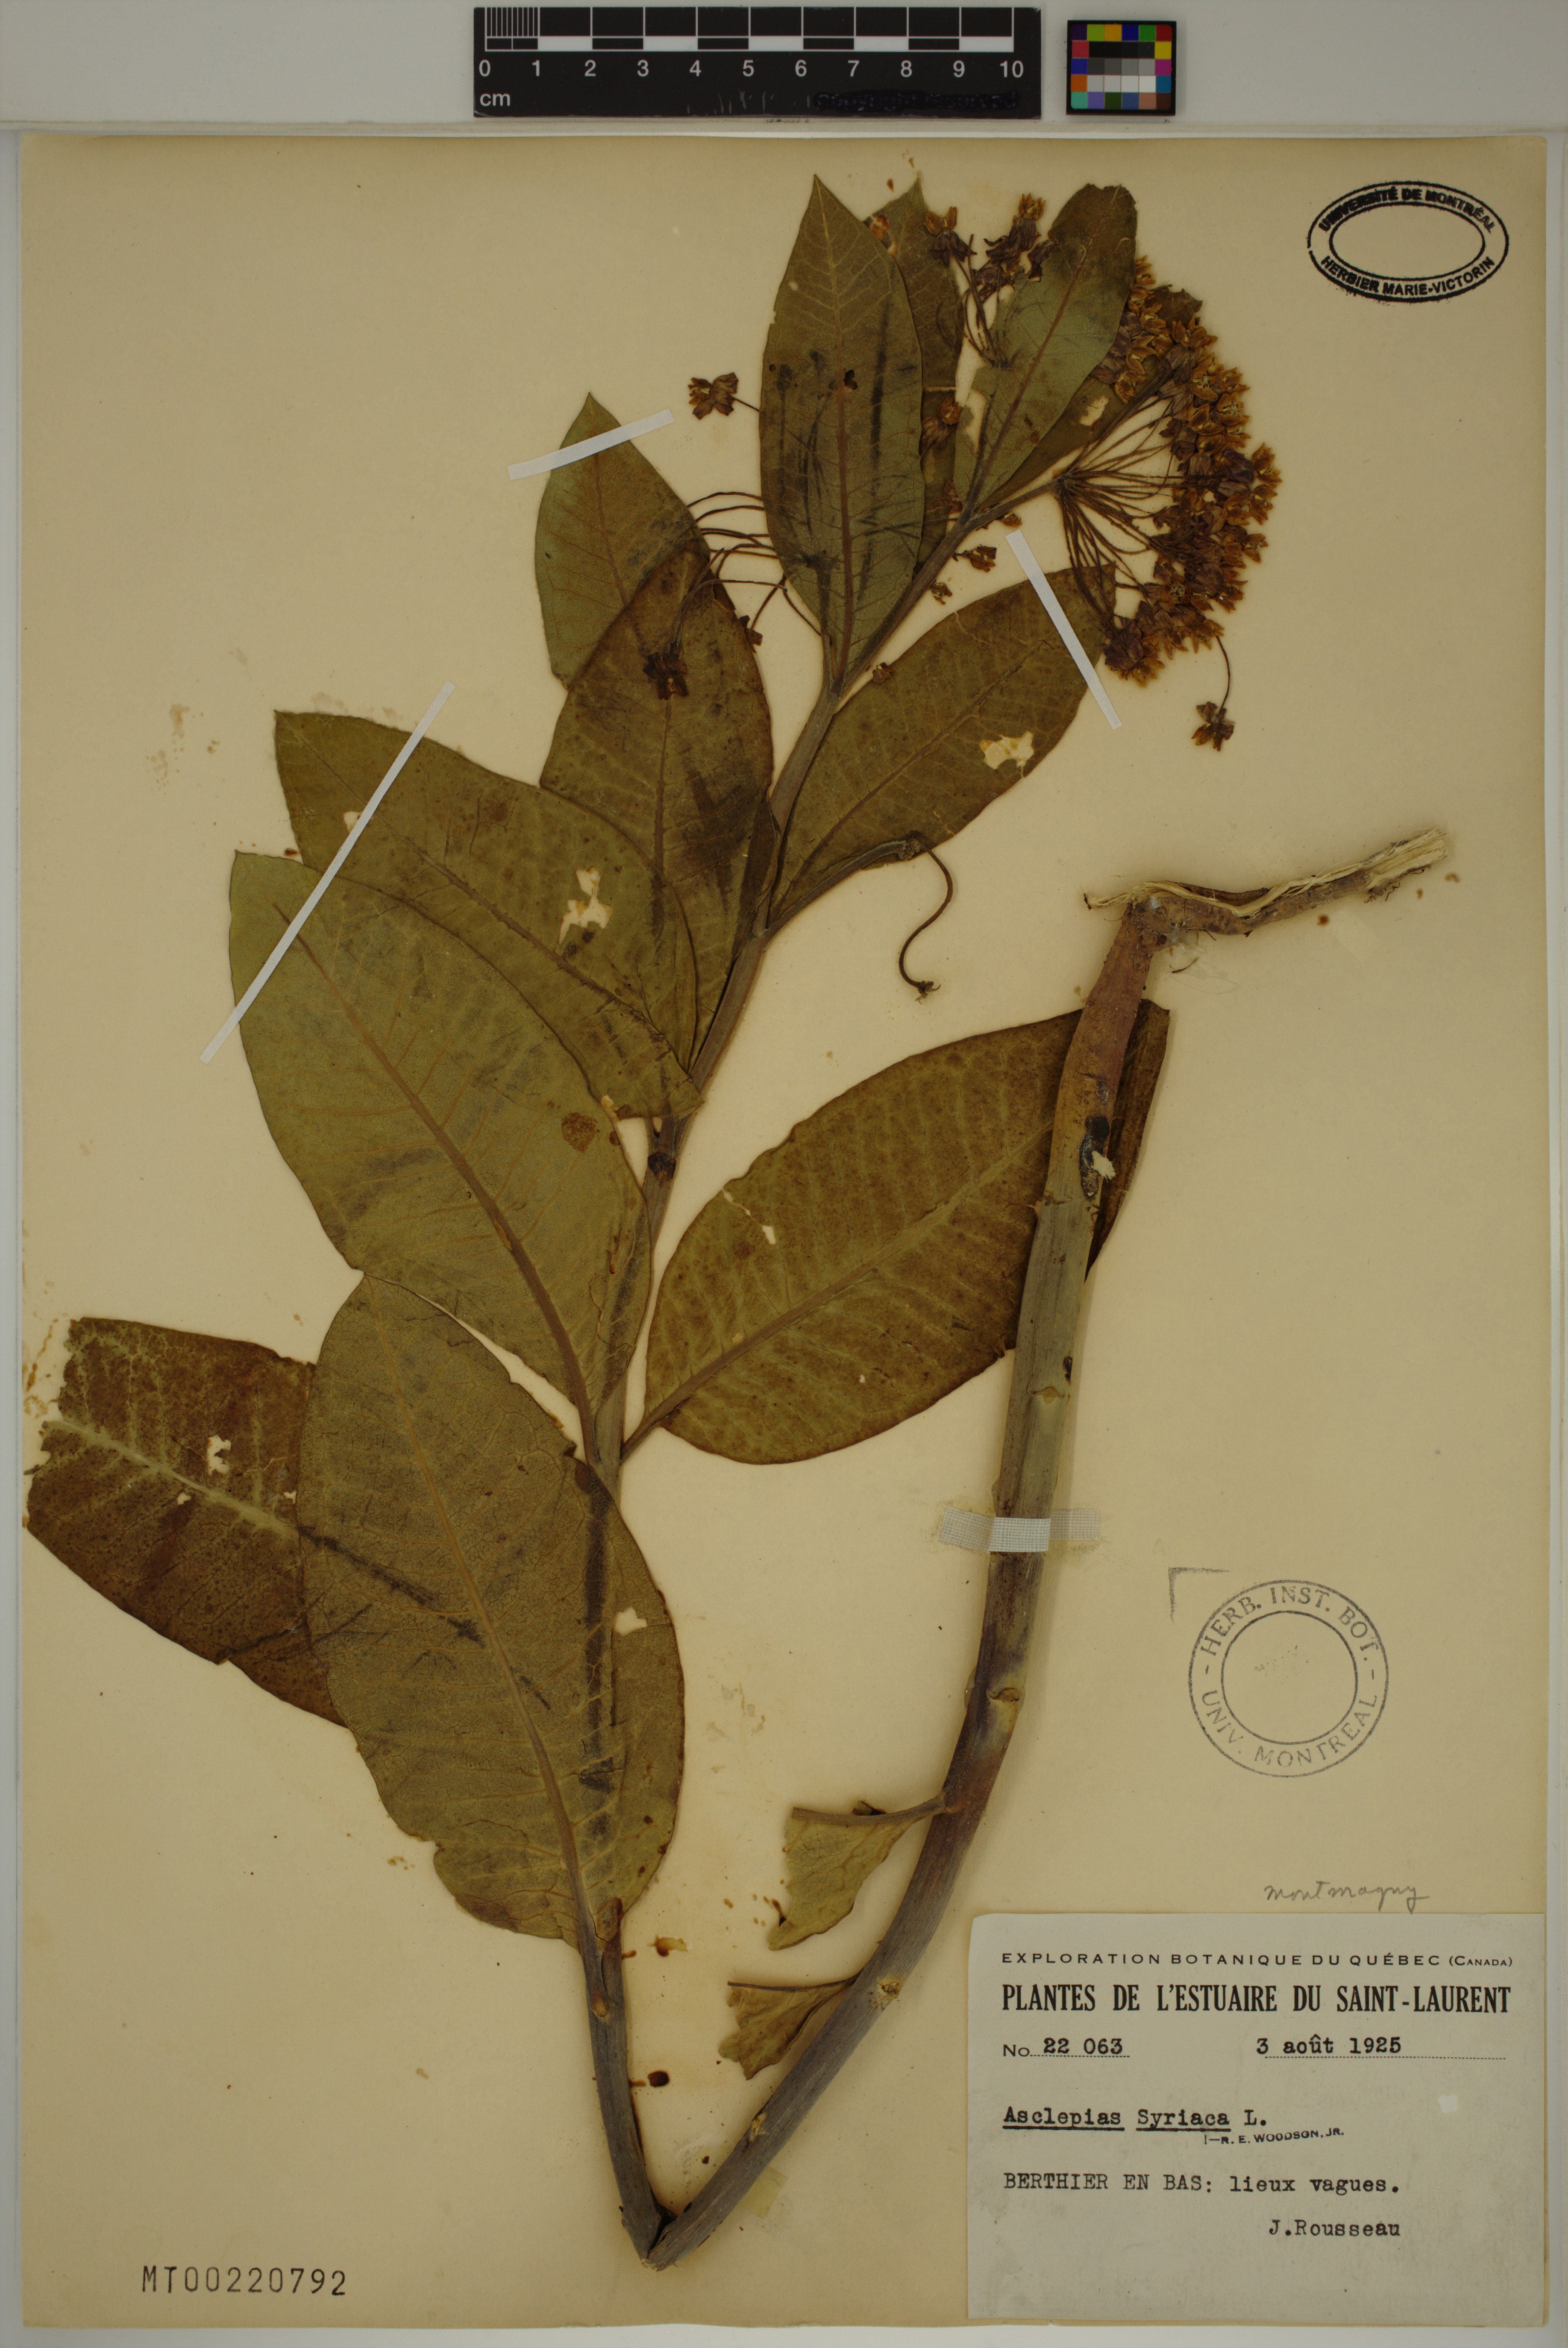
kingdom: Plantae
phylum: Tracheophyta
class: Magnoliopsida
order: Gentianales
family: Apocynaceae
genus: Asclepias
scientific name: Asclepias syriaca
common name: Common milkweed
